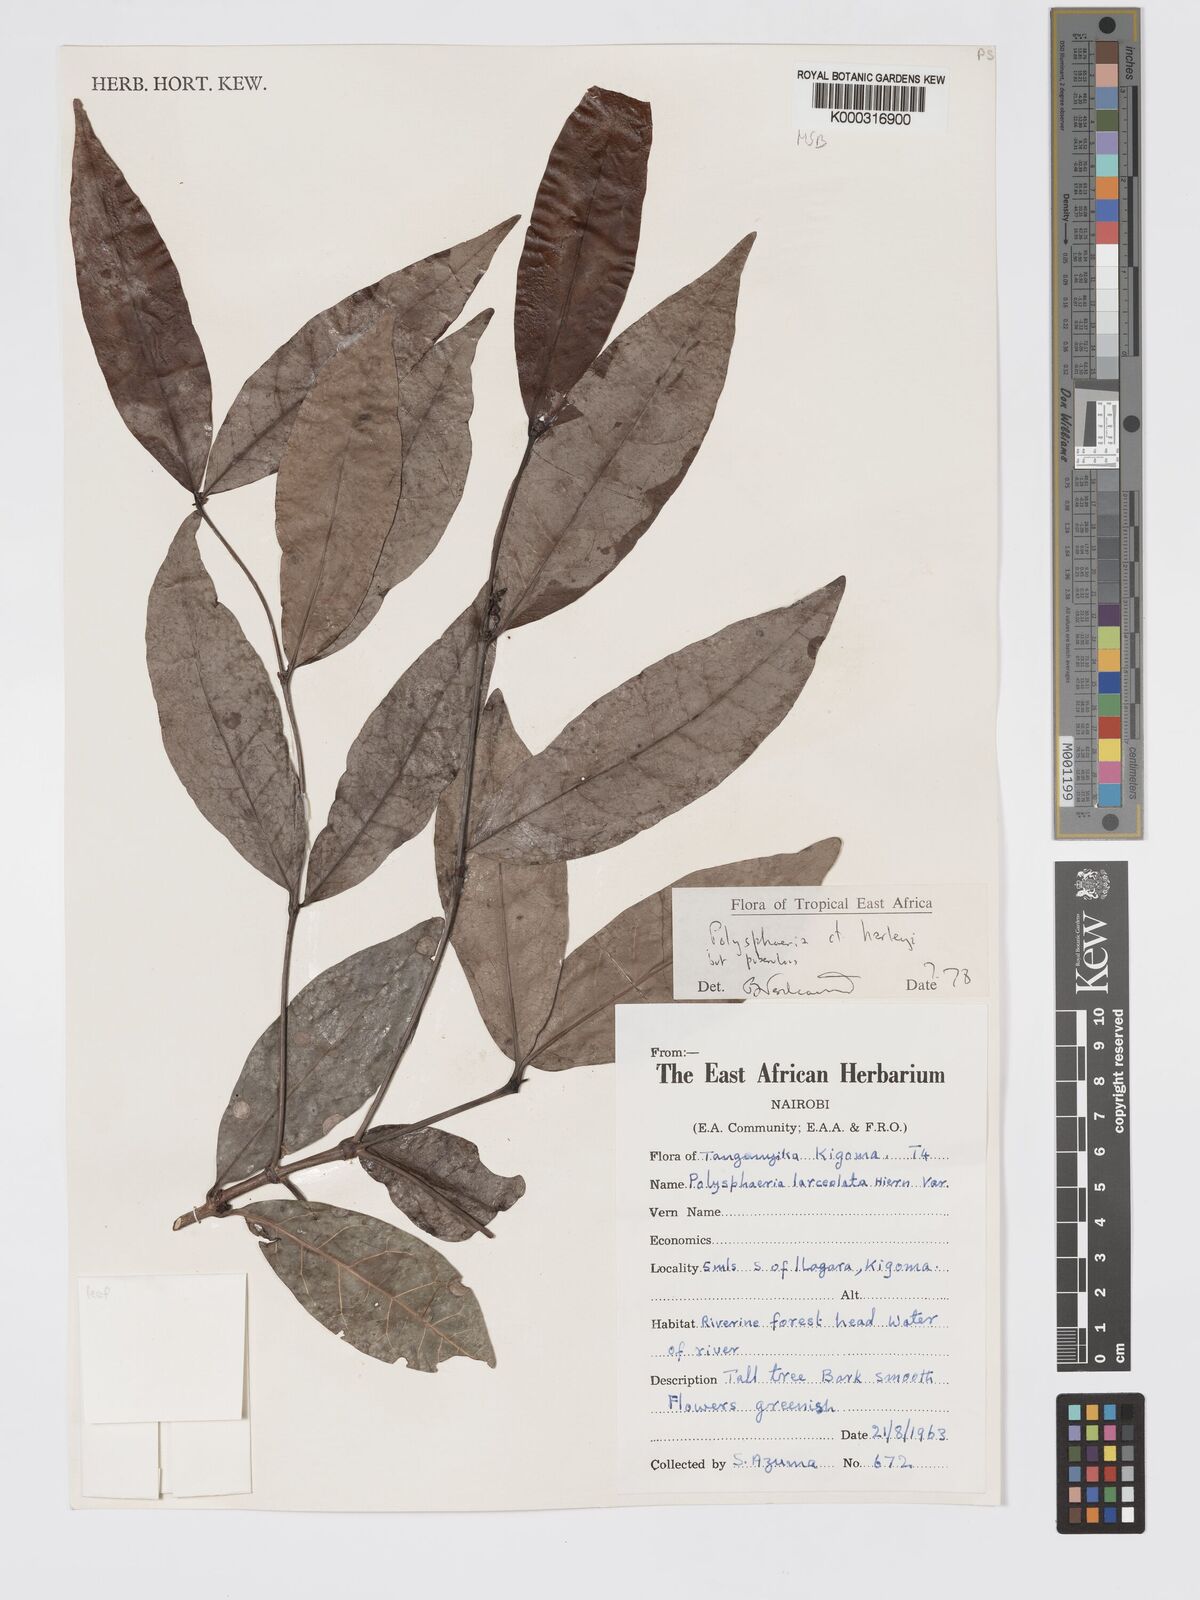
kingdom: Plantae
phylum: Tracheophyta
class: Magnoliopsida
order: Gentianales
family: Rubiaceae
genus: Polysphaeria
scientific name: Polysphaeria lanceolata
